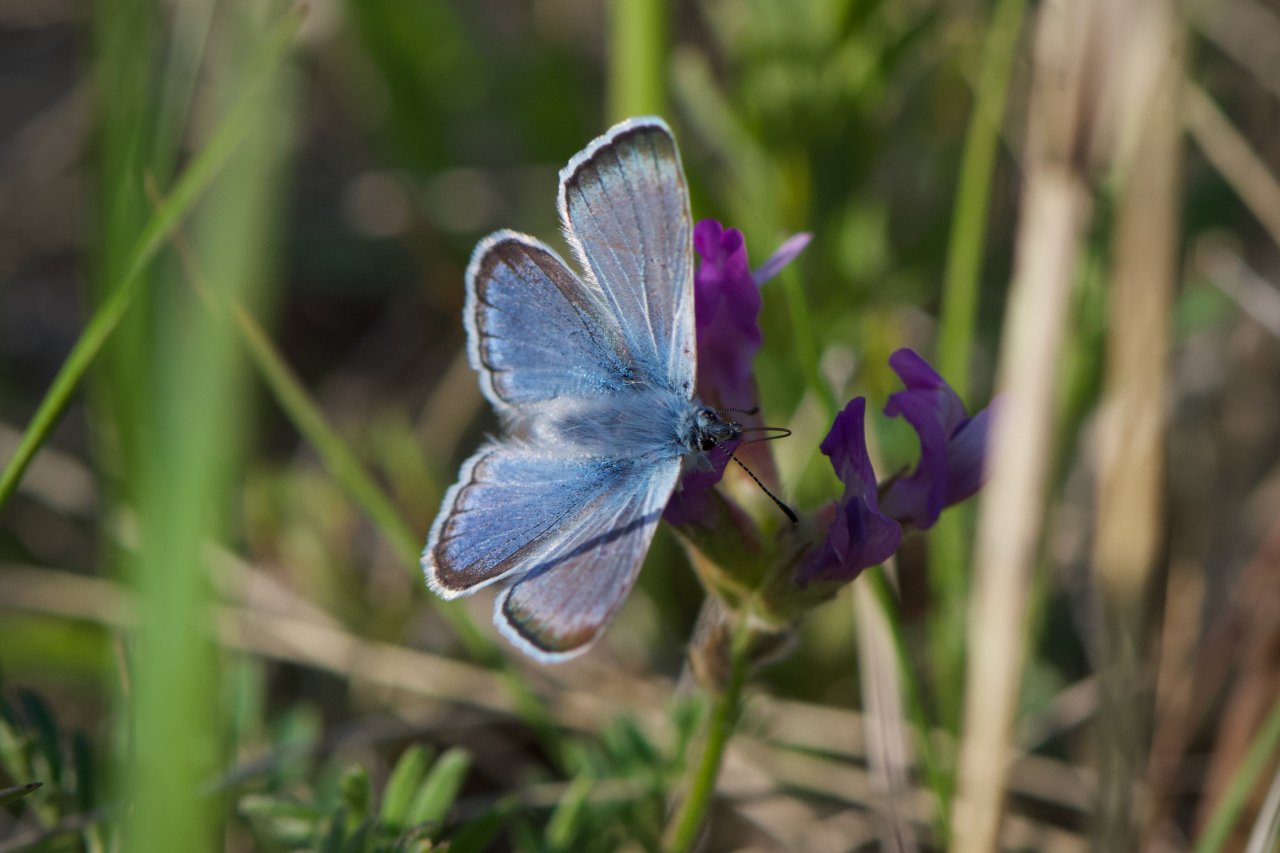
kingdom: Animalia
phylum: Arthropoda
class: Insecta
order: Lepidoptera
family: Lycaenidae
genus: Plebejus
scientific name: Plebejus saepiolus
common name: Greenish Blue
